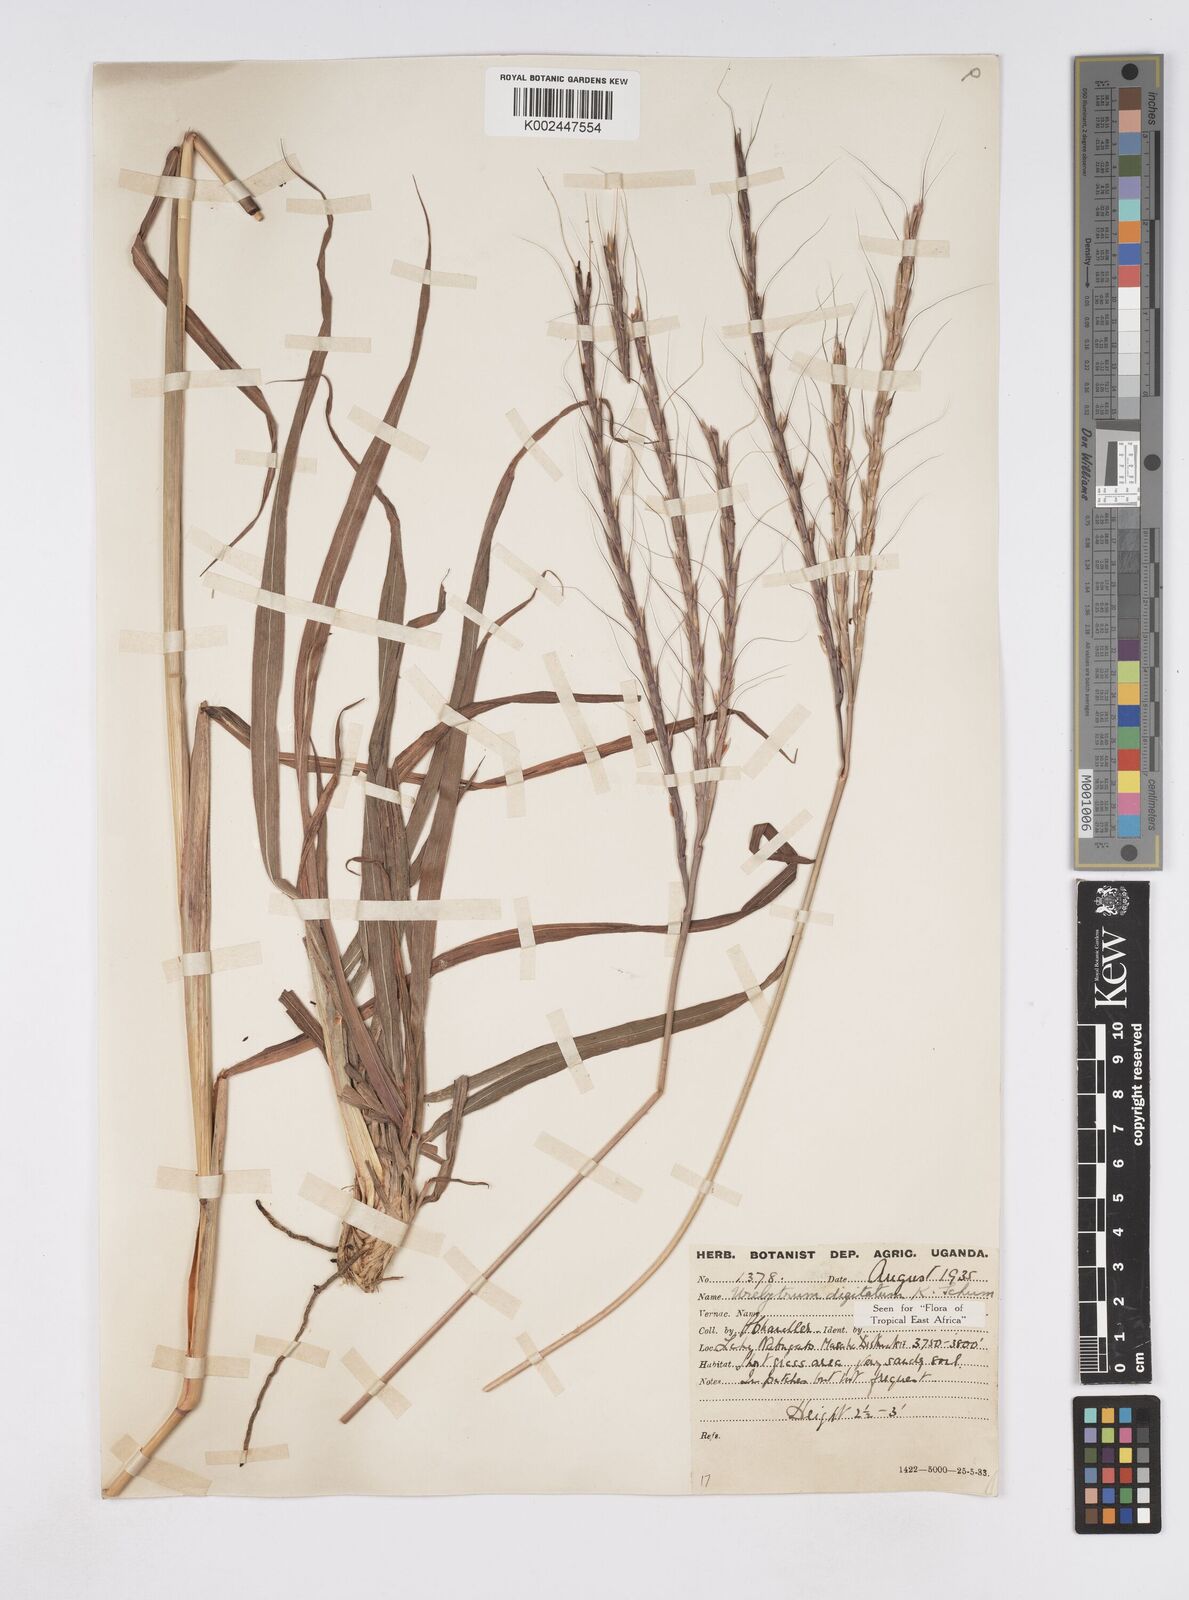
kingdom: Plantae
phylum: Tracheophyta
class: Liliopsida
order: Poales
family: Poaceae
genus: Urelytrum
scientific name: Urelytrum digitatum
